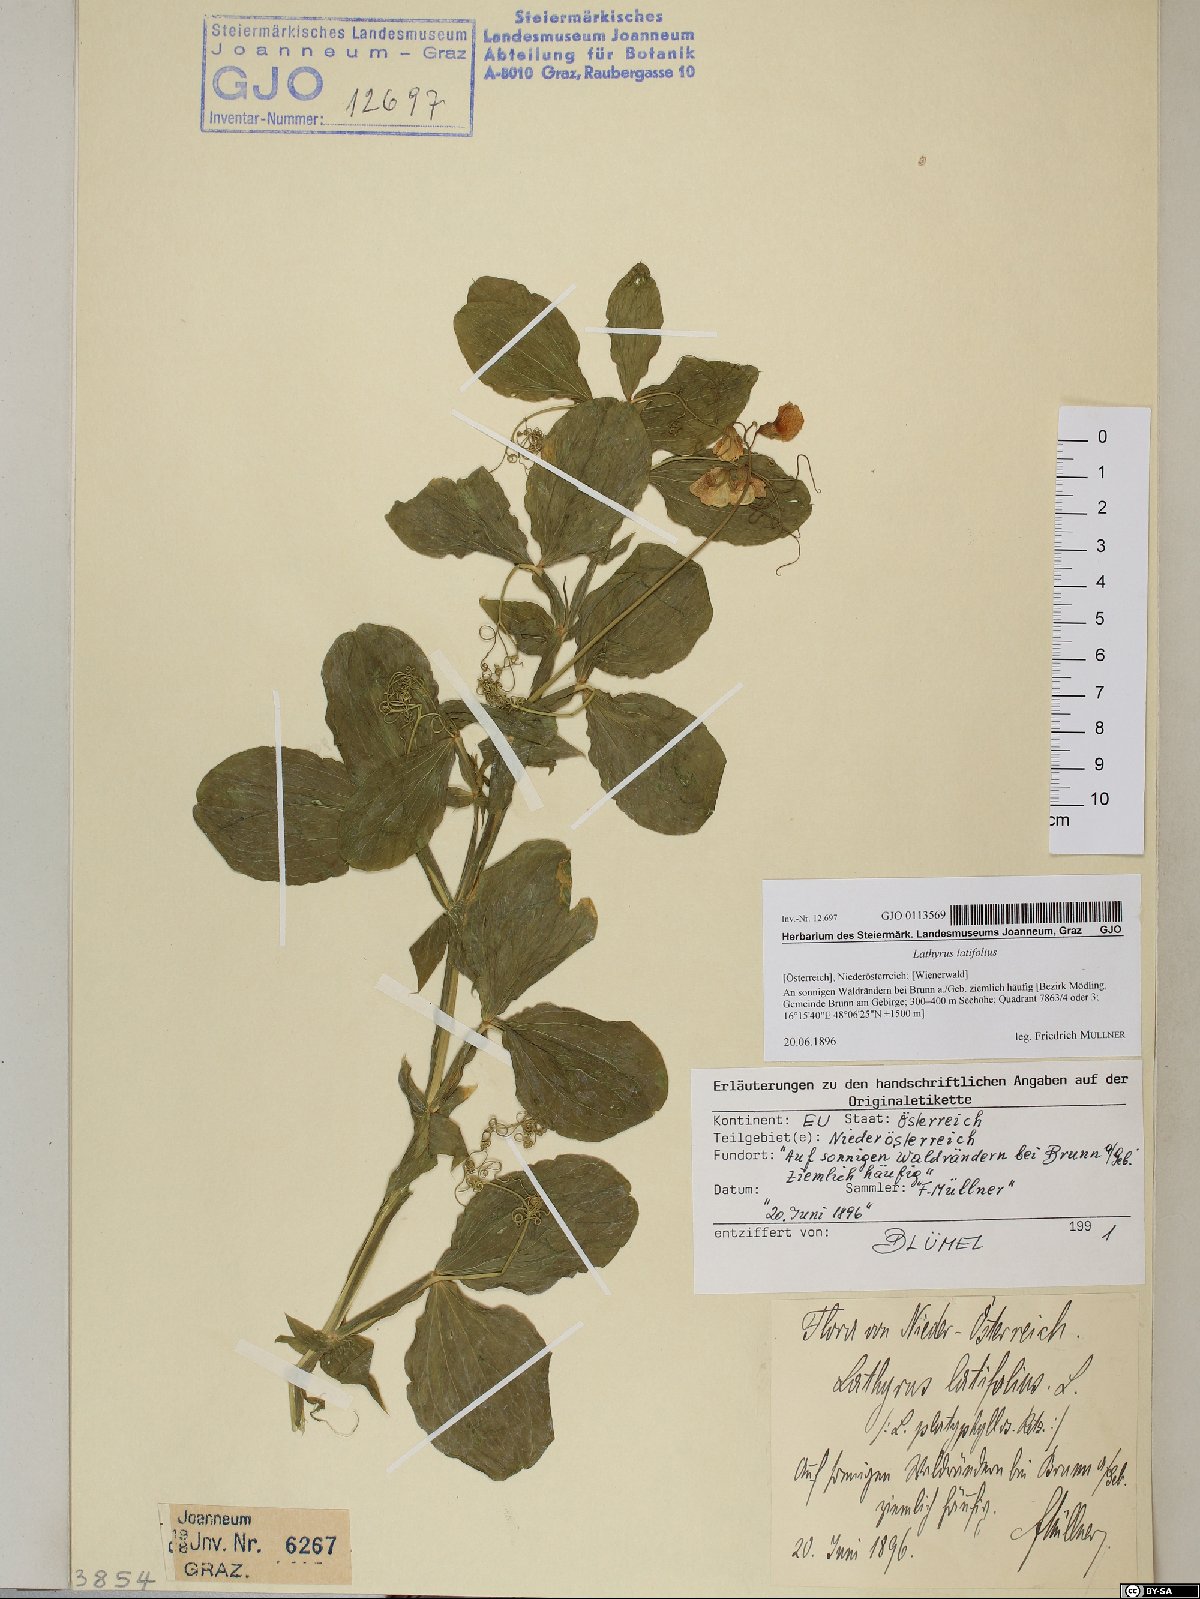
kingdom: Plantae
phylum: Tracheophyta
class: Magnoliopsida
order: Fabales
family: Fabaceae
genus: Lathyrus
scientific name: Lathyrus latifolius
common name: Perennial pea
